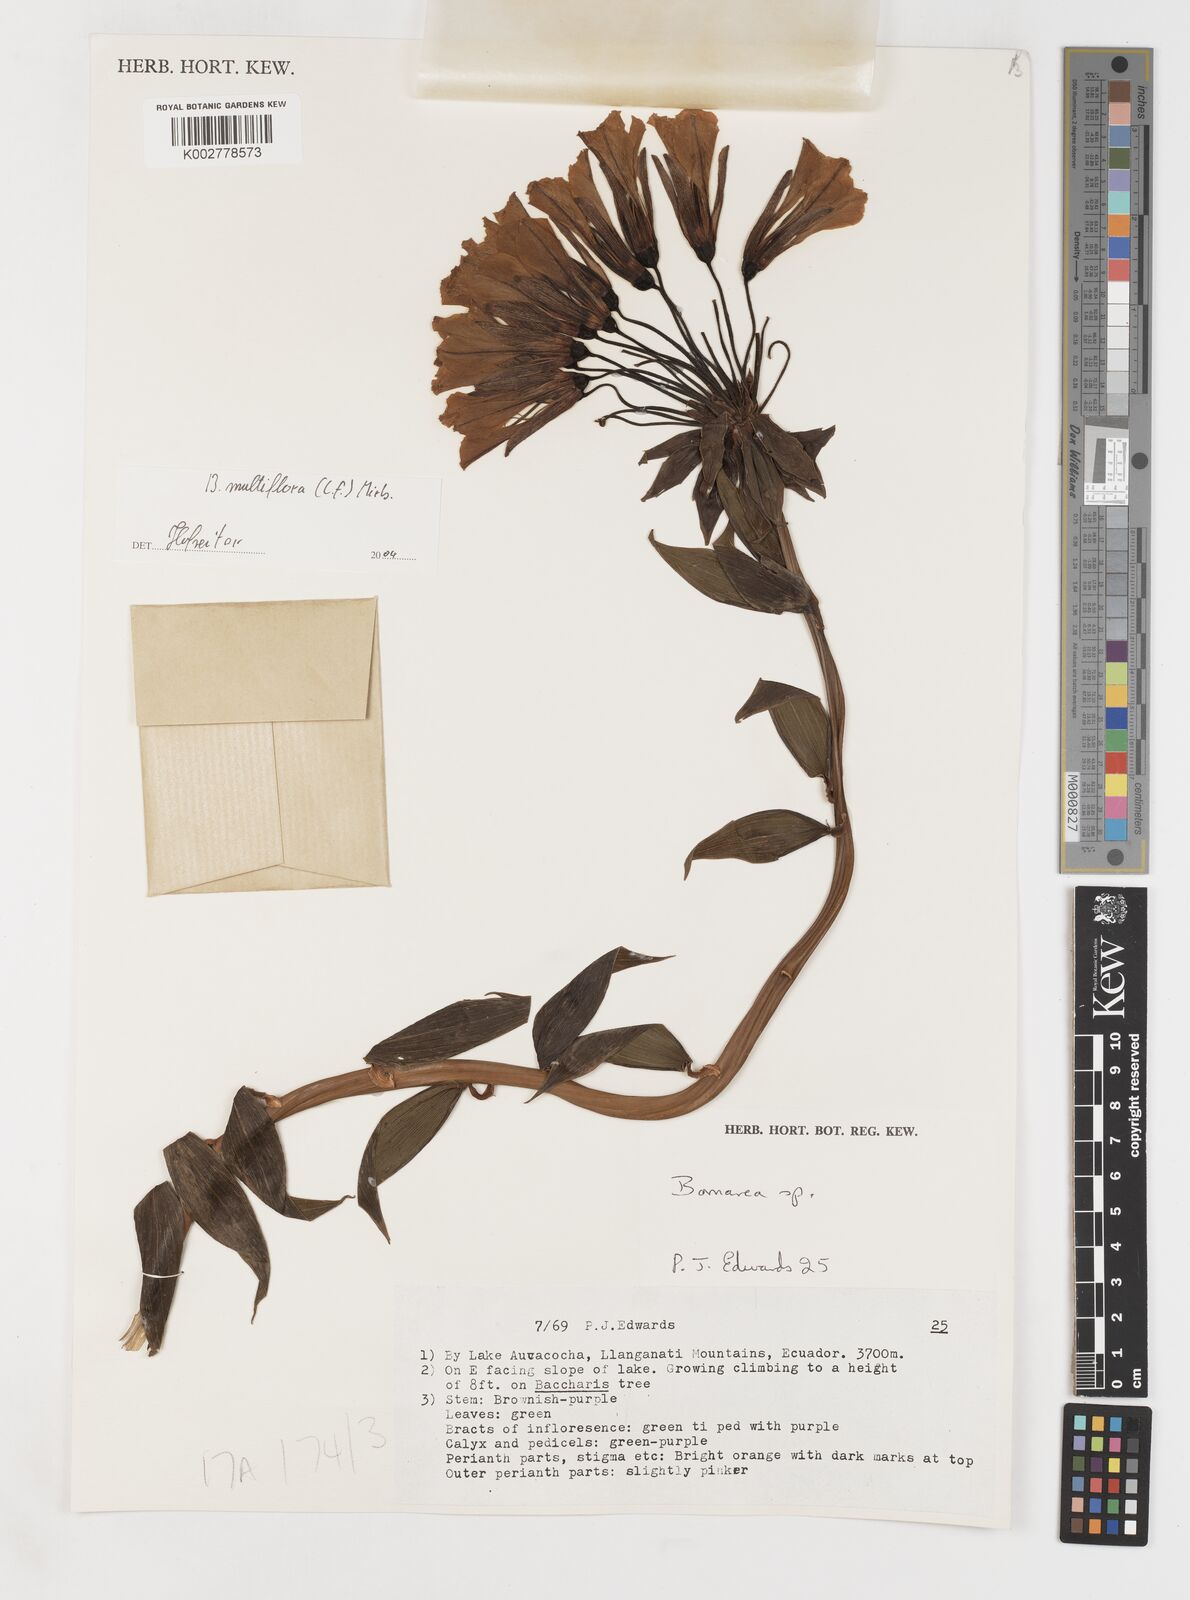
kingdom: Plantae
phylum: Tracheophyta
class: Liliopsida
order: Liliales
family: Alstroemeriaceae
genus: Bomarea
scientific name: Bomarea multiflora
